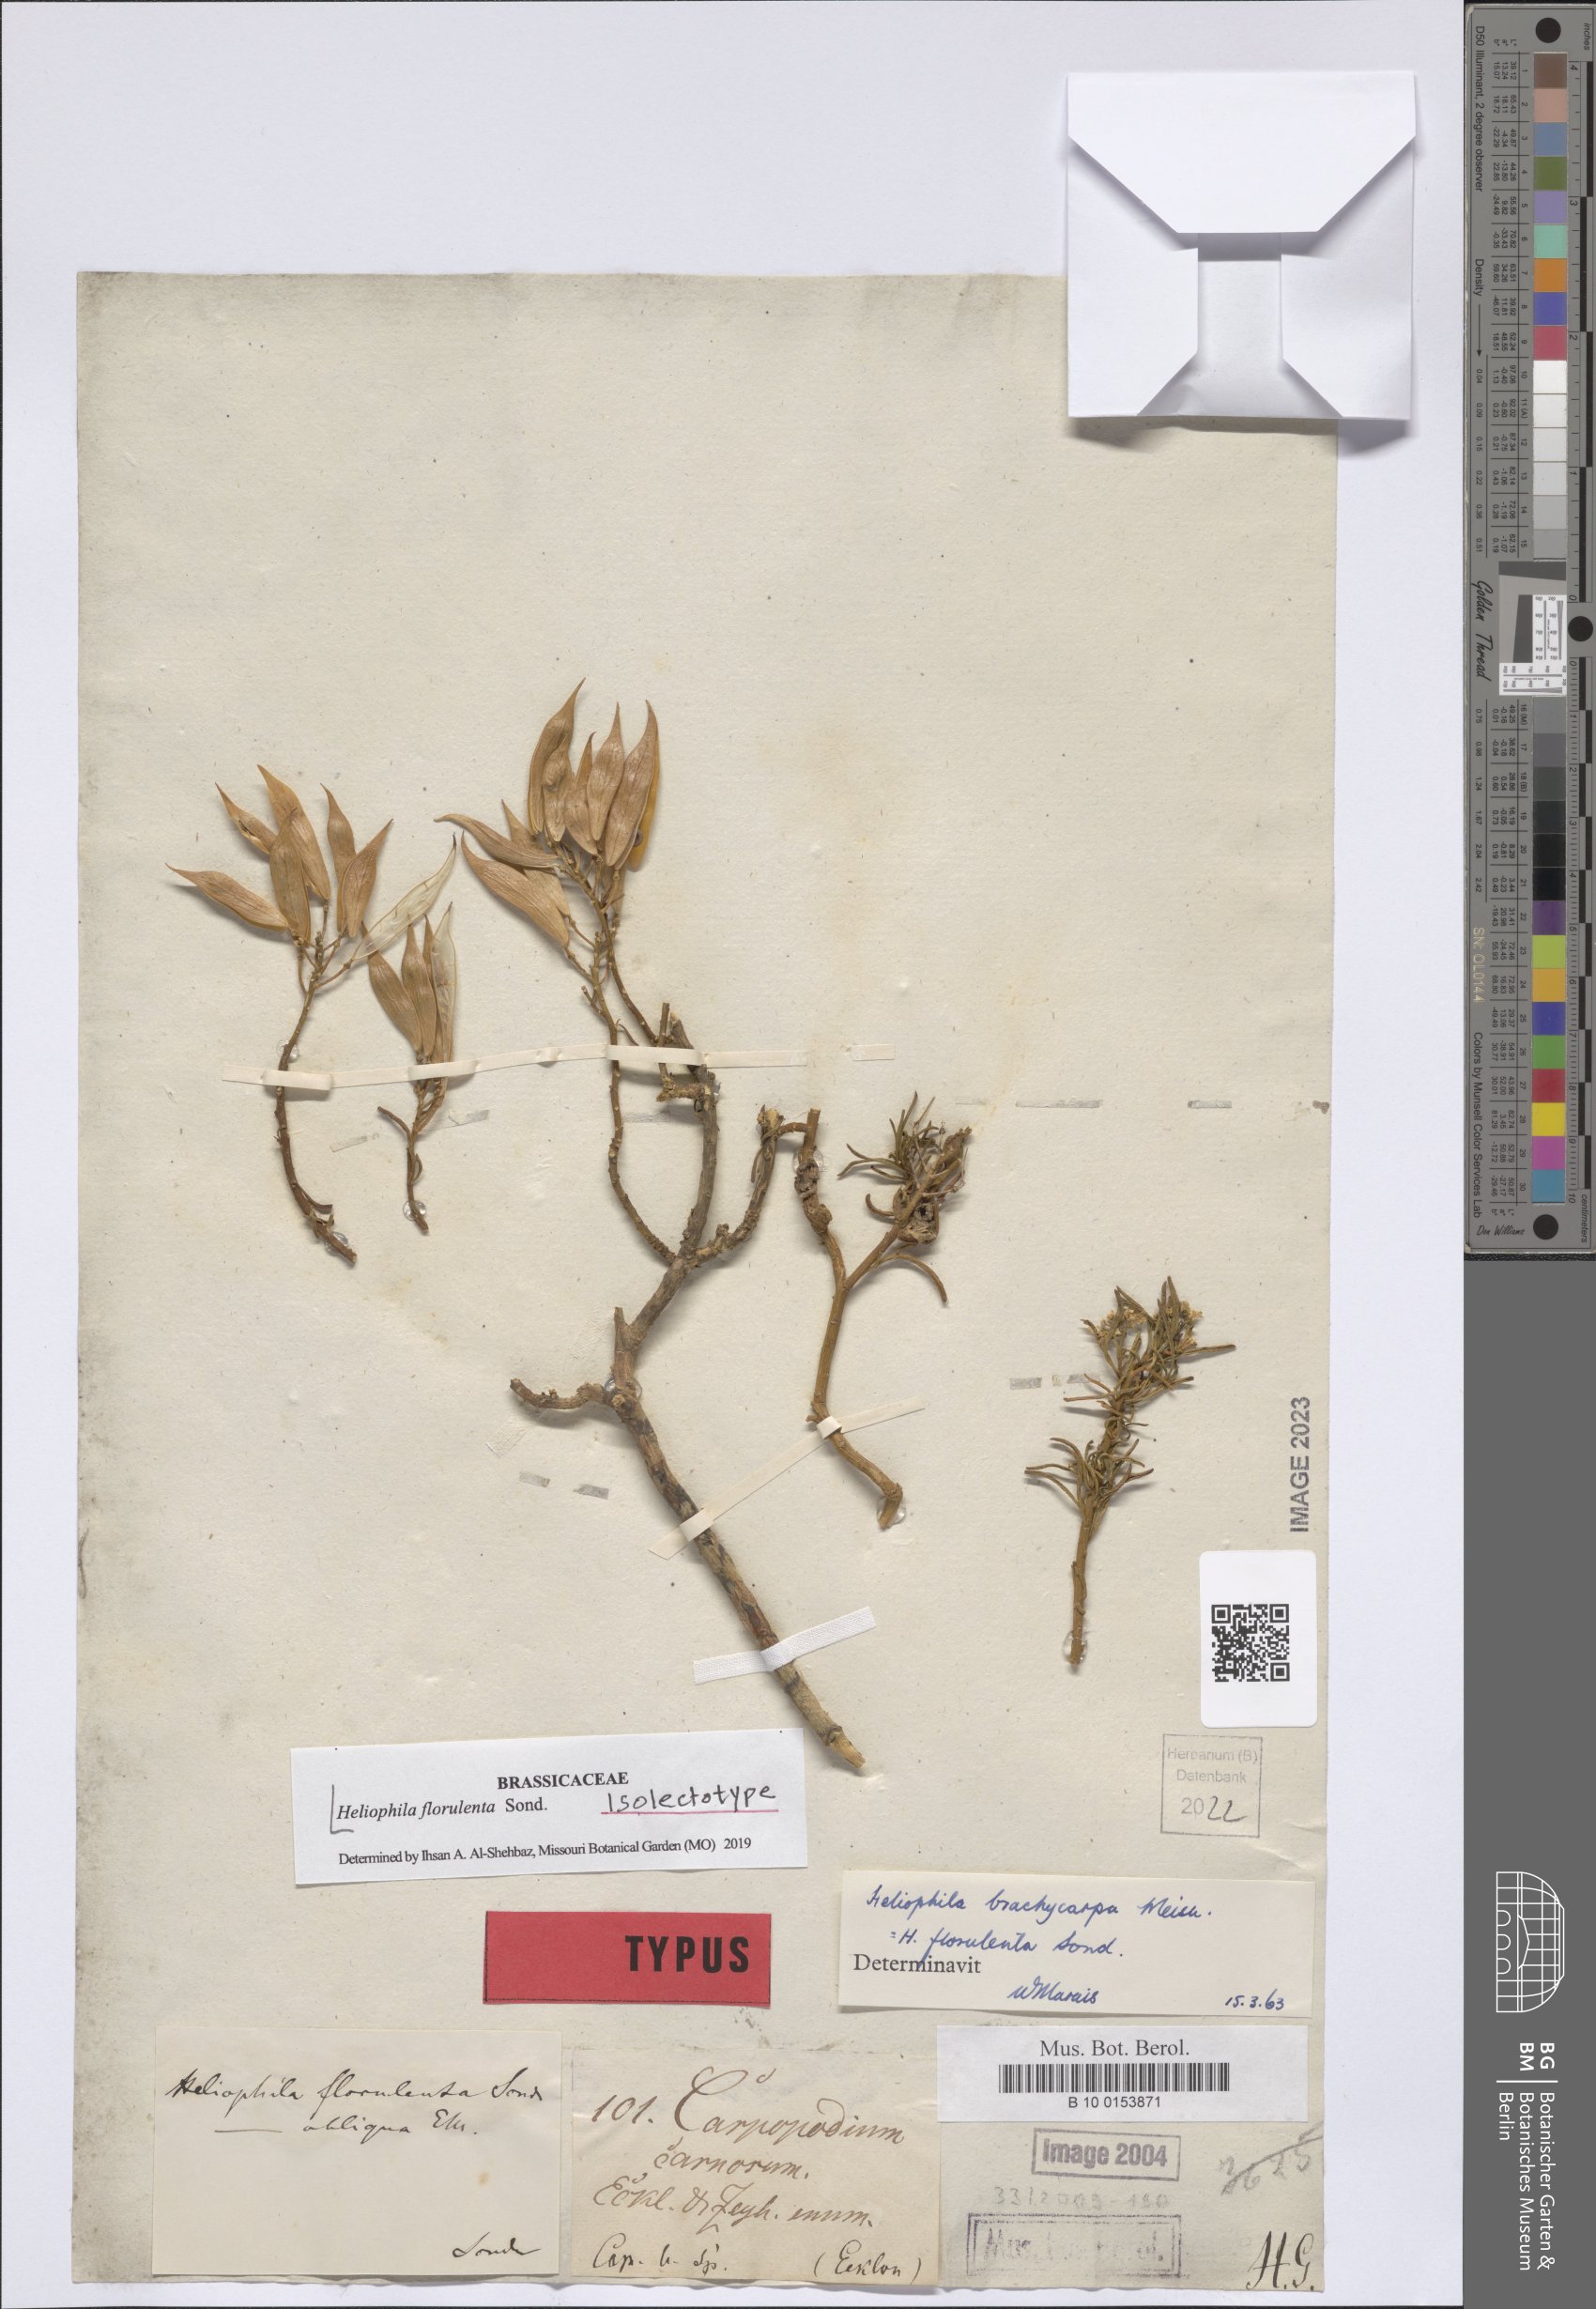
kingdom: Plantae
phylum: Tracheophyta
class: Magnoliopsida
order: Brassicales
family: Brassicaceae
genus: Heliophila
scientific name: Heliophila brachycarpa
